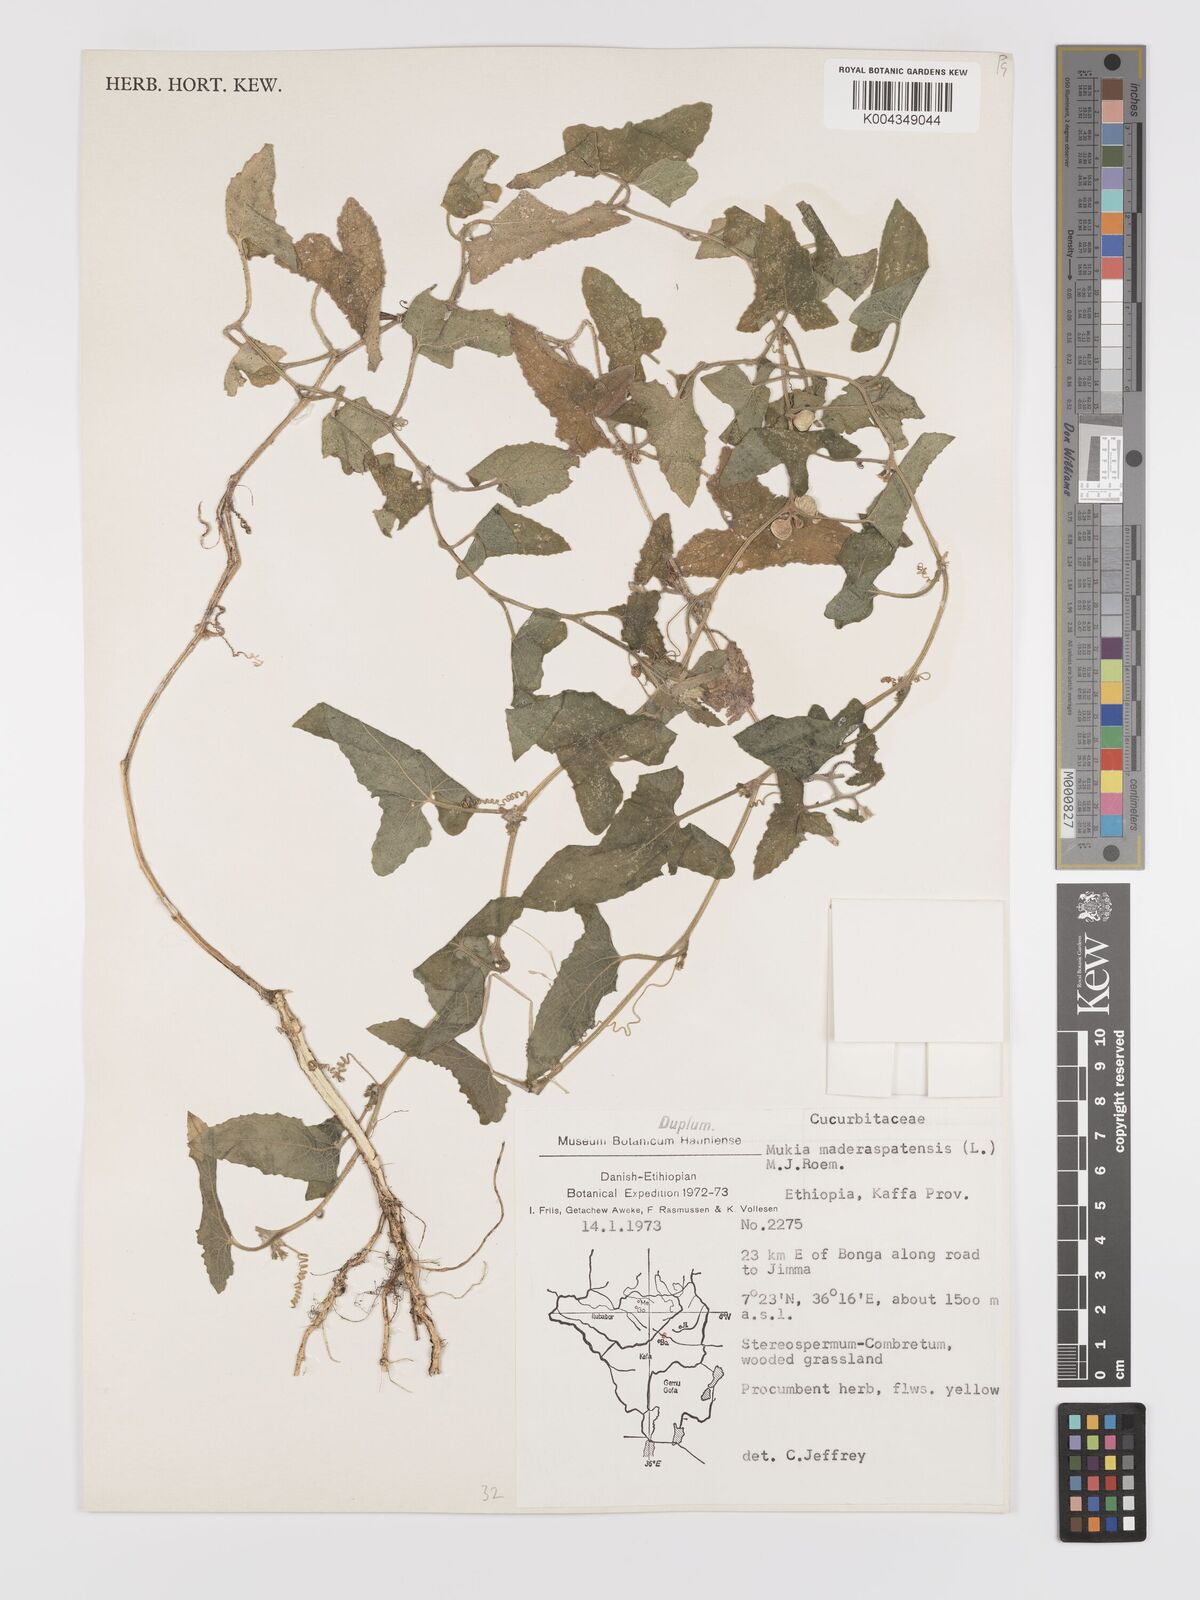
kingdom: Plantae
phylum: Tracheophyta
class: Magnoliopsida
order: Cucurbitales
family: Cucurbitaceae
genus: Cucumis
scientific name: Cucumis maderaspatanus
